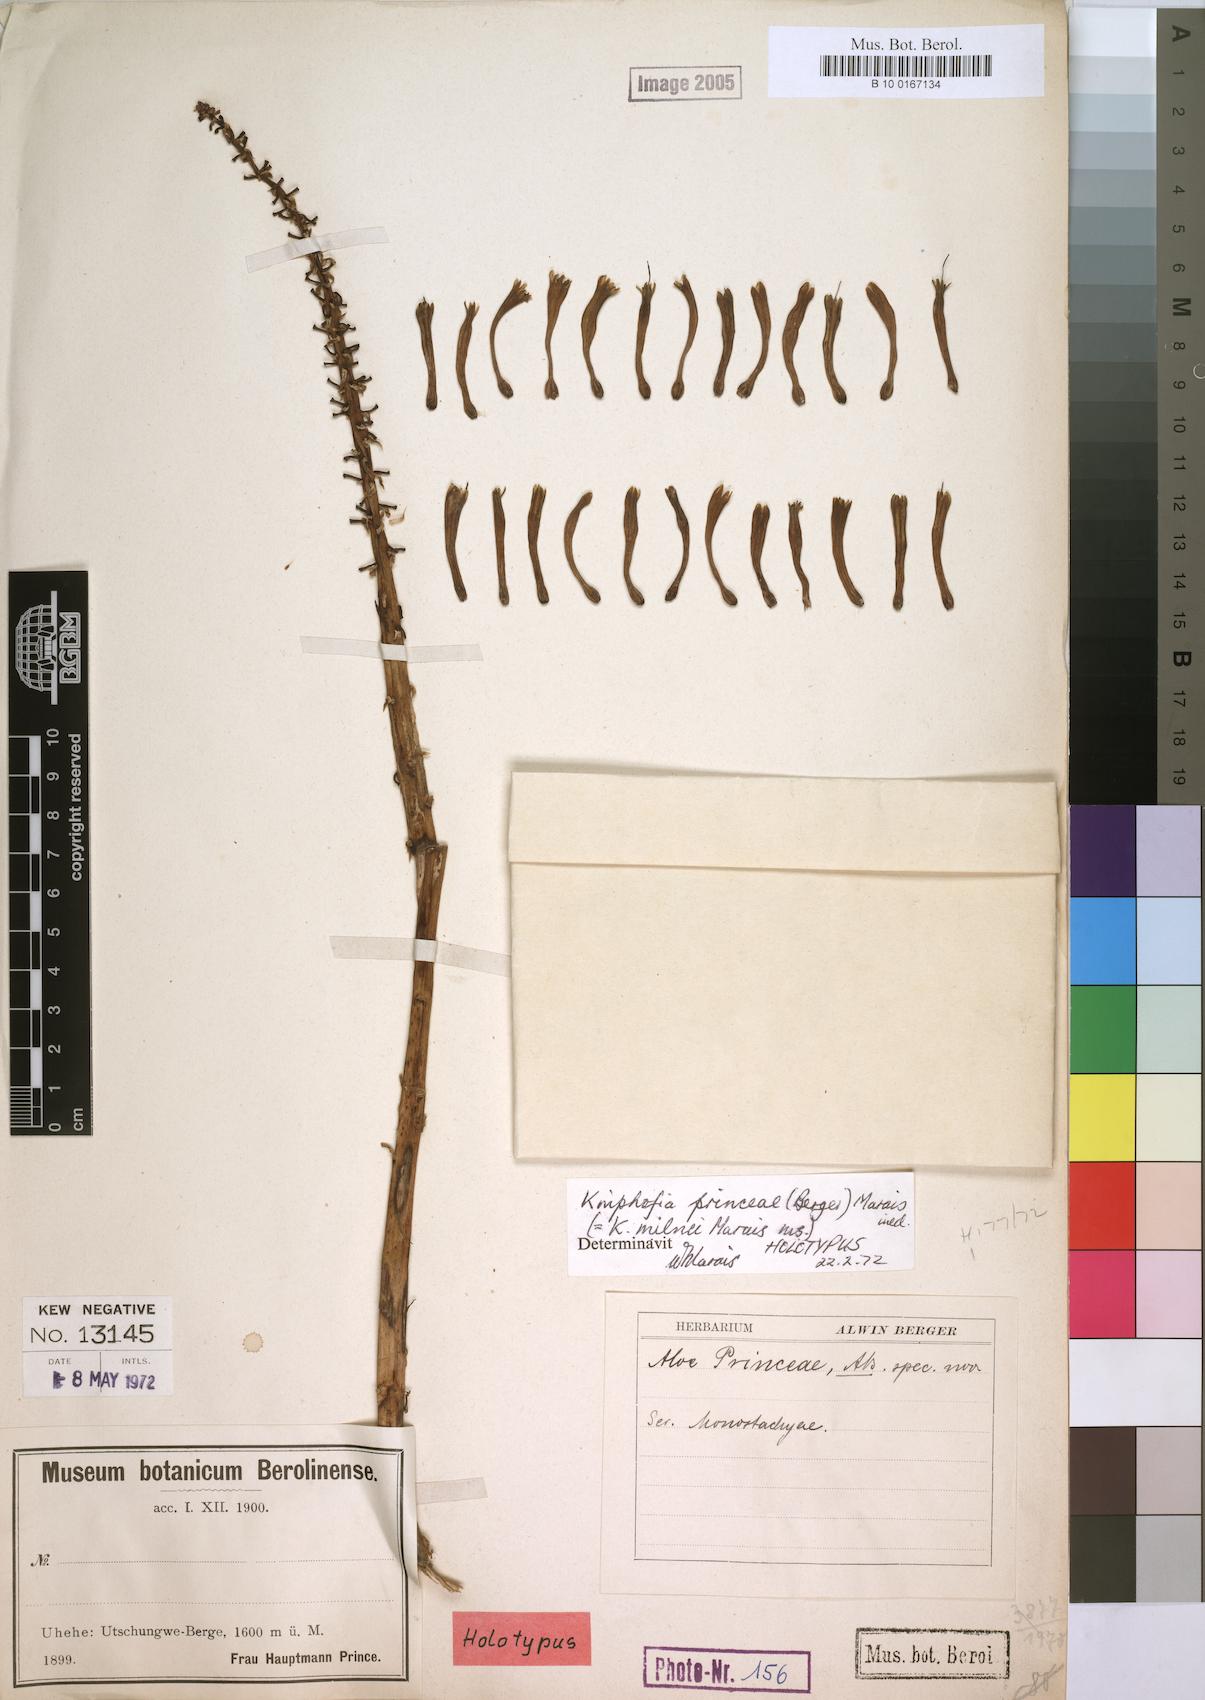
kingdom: Plantae
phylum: Tracheophyta
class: Liliopsida
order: Asparagales
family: Asphodelaceae
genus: Kniphofia
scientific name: Kniphofia princeae
